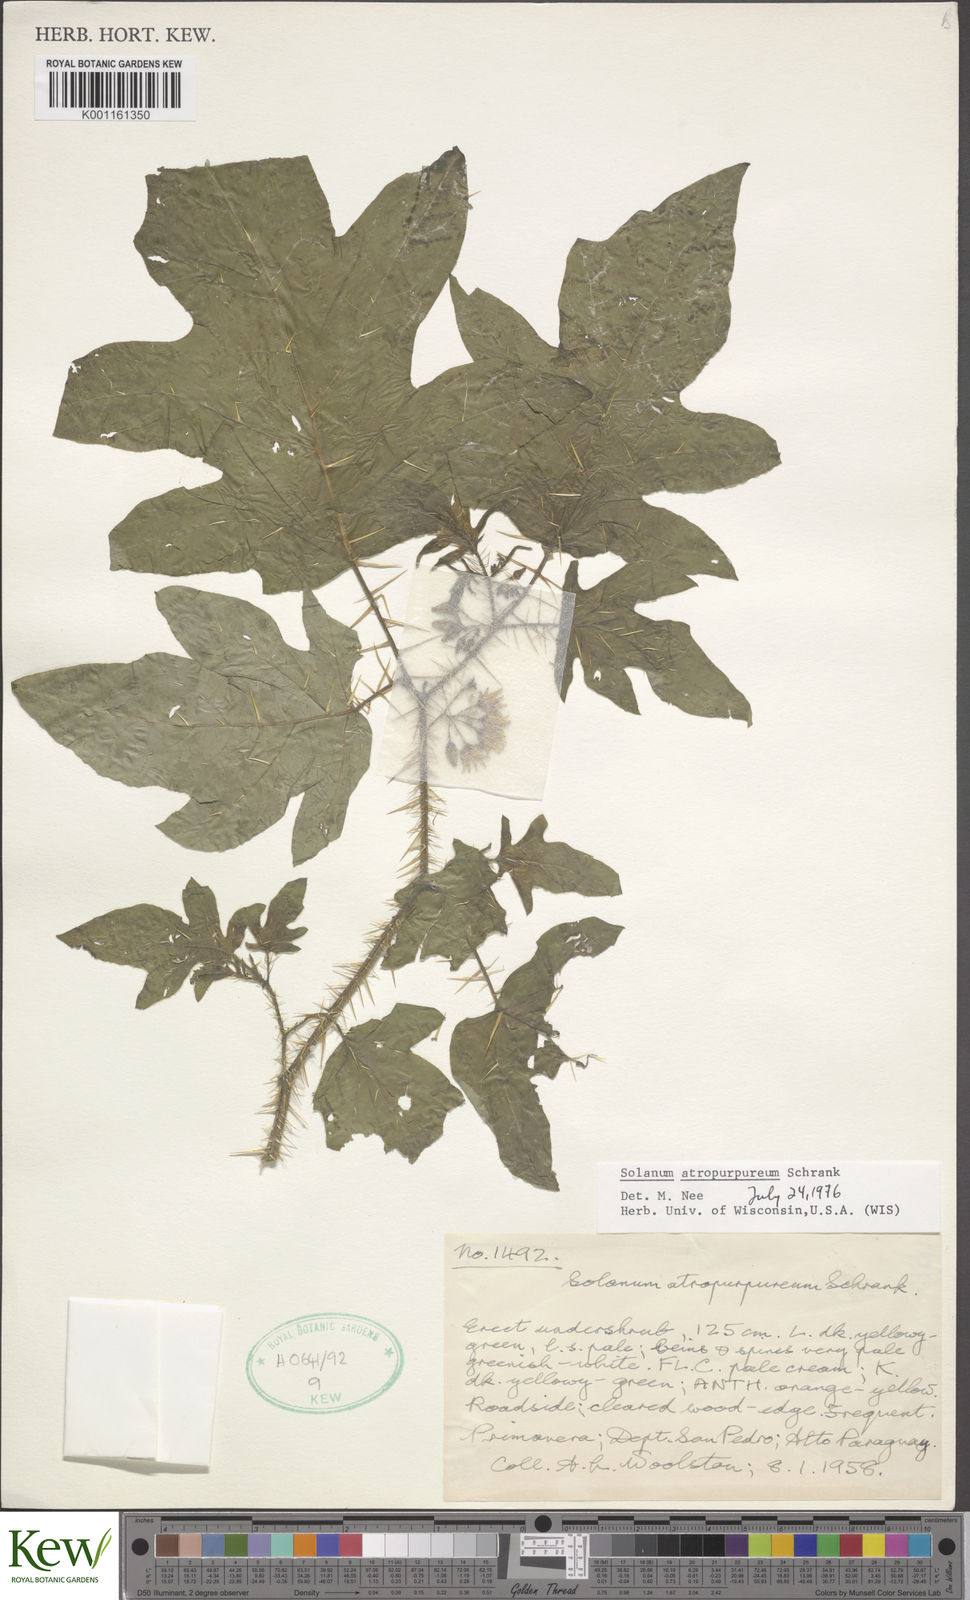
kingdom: Plantae
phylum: Tracheophyta
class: Magnoliopsida
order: Solanales
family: Solanaceae
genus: Solanum
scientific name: Solanum atropurpureum
